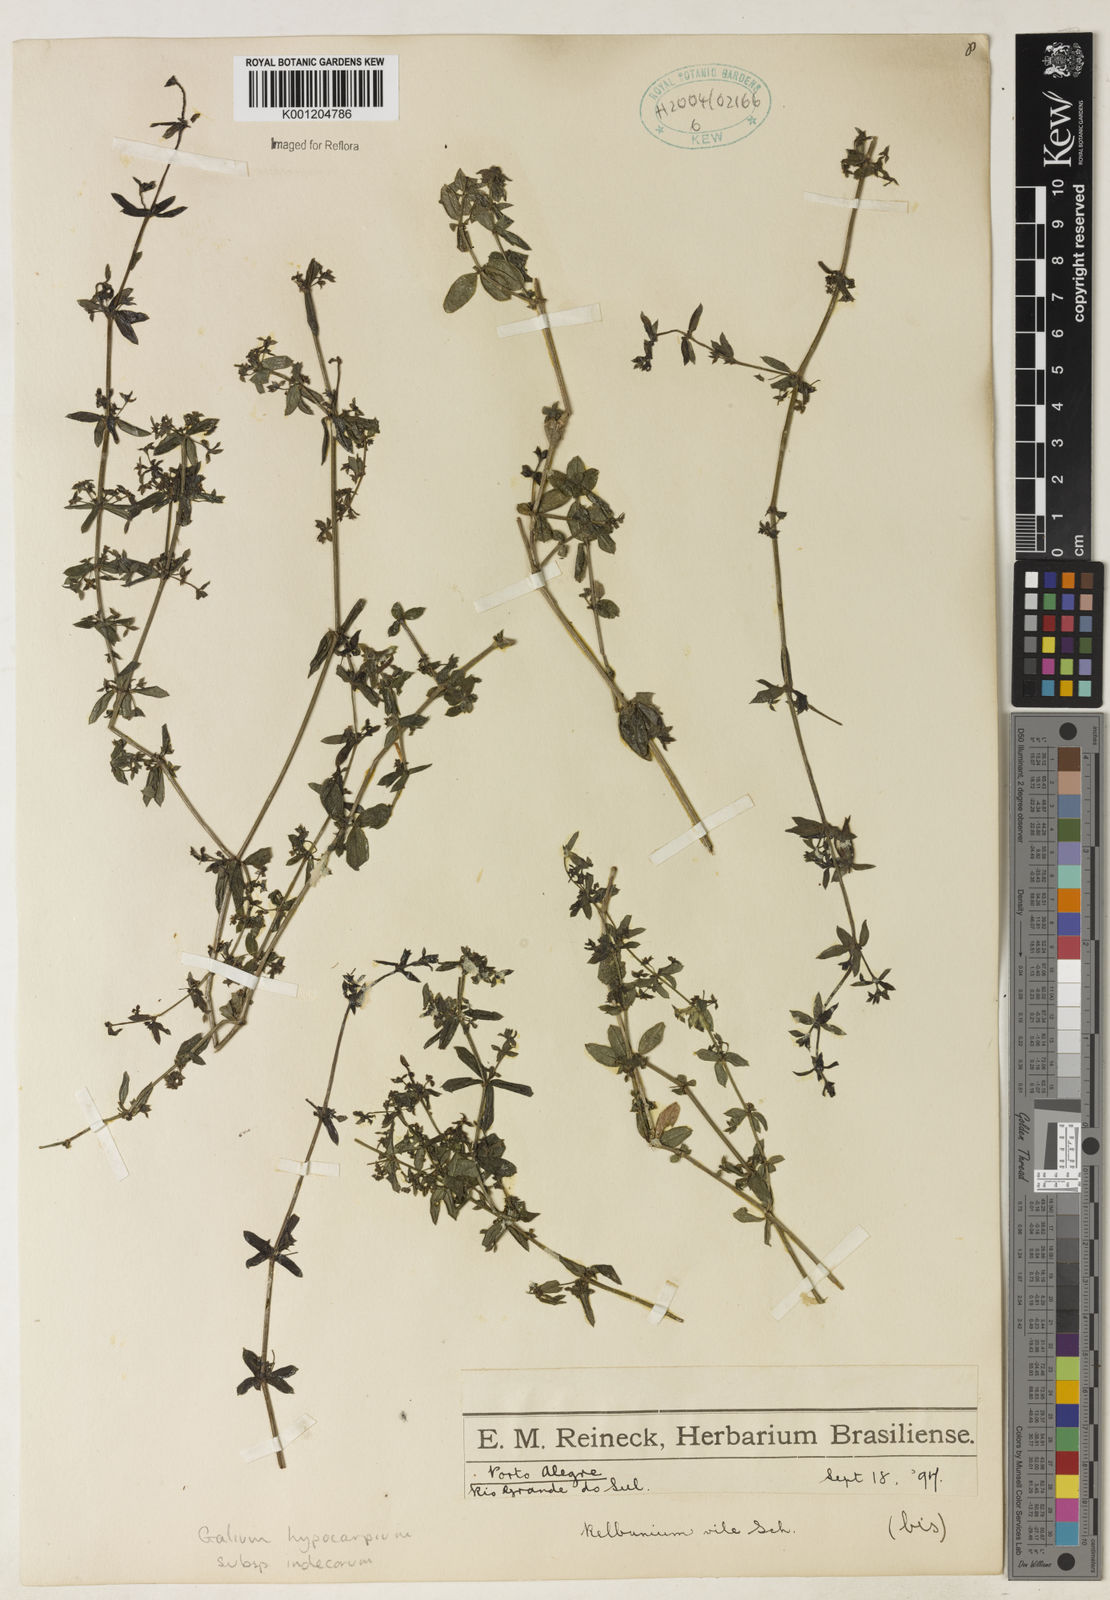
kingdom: Plantae
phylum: Tracheophyta
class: Magnoliopsida
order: Gentianales
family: Rubiaceae
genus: Galium
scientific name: Galium hypocarpium
